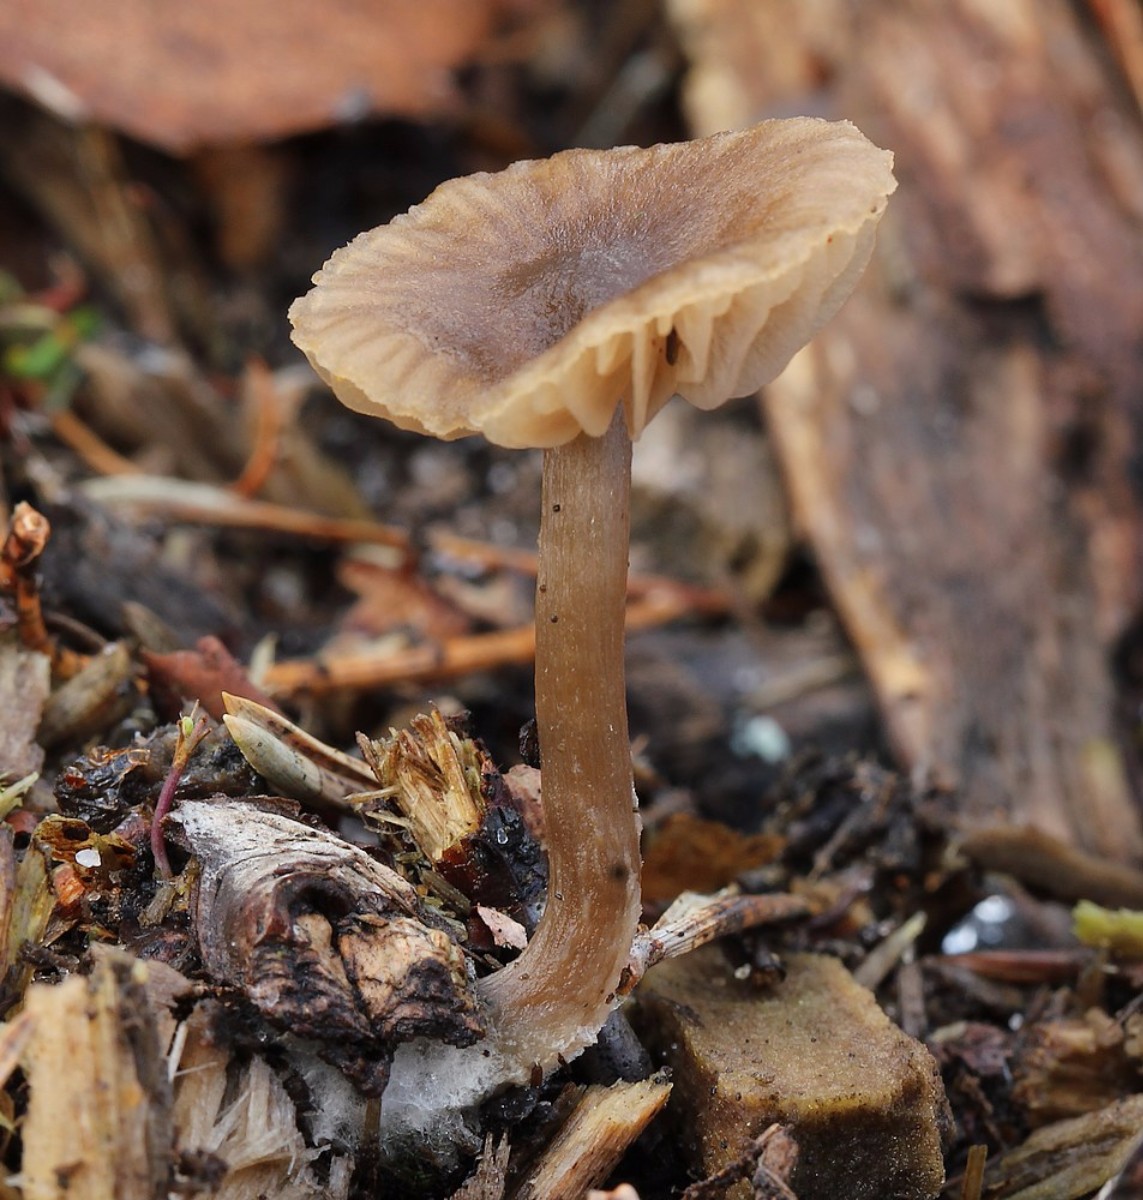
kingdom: Fungi
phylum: Basidiomycota
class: Agaricomycetes
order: Agaricales
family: Entolomataceae
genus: Entoloma
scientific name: Entoloma
